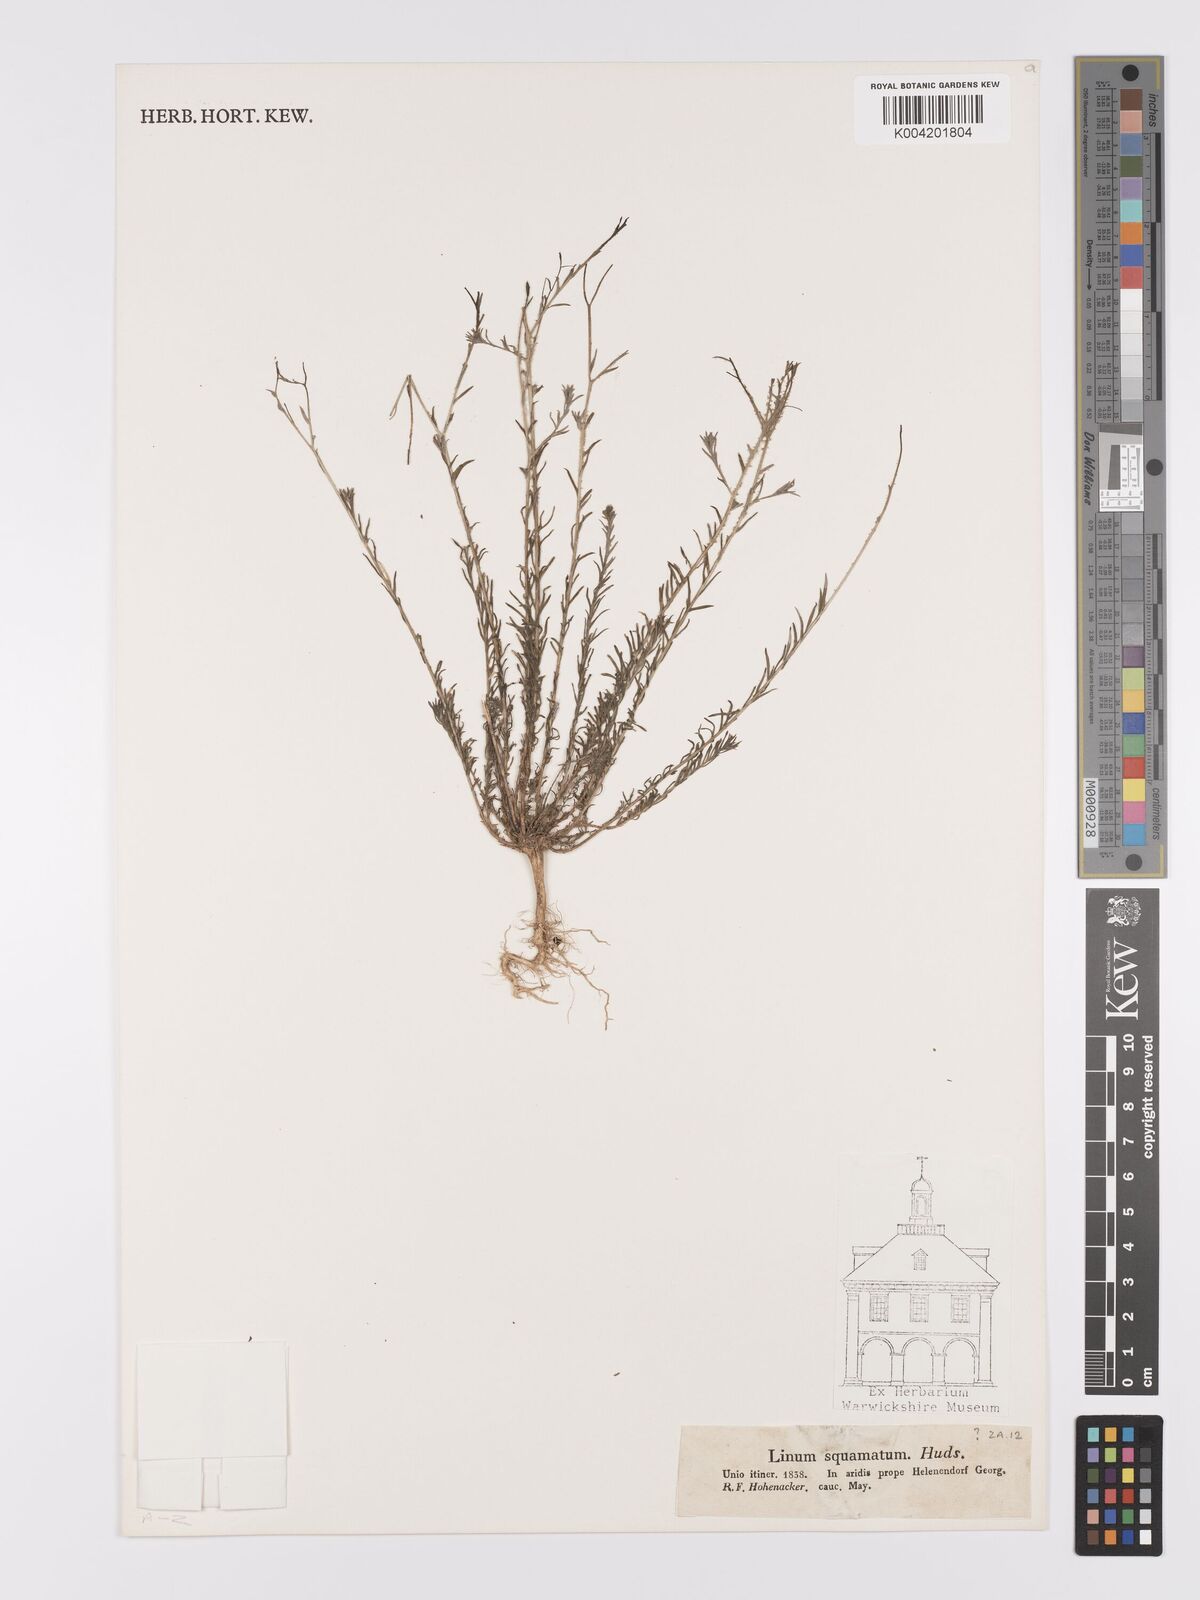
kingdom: Plantae
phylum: Tracheophyta
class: Magnoliopsida
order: Malpighiales
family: Linaceae
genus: Linum
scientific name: Linum
